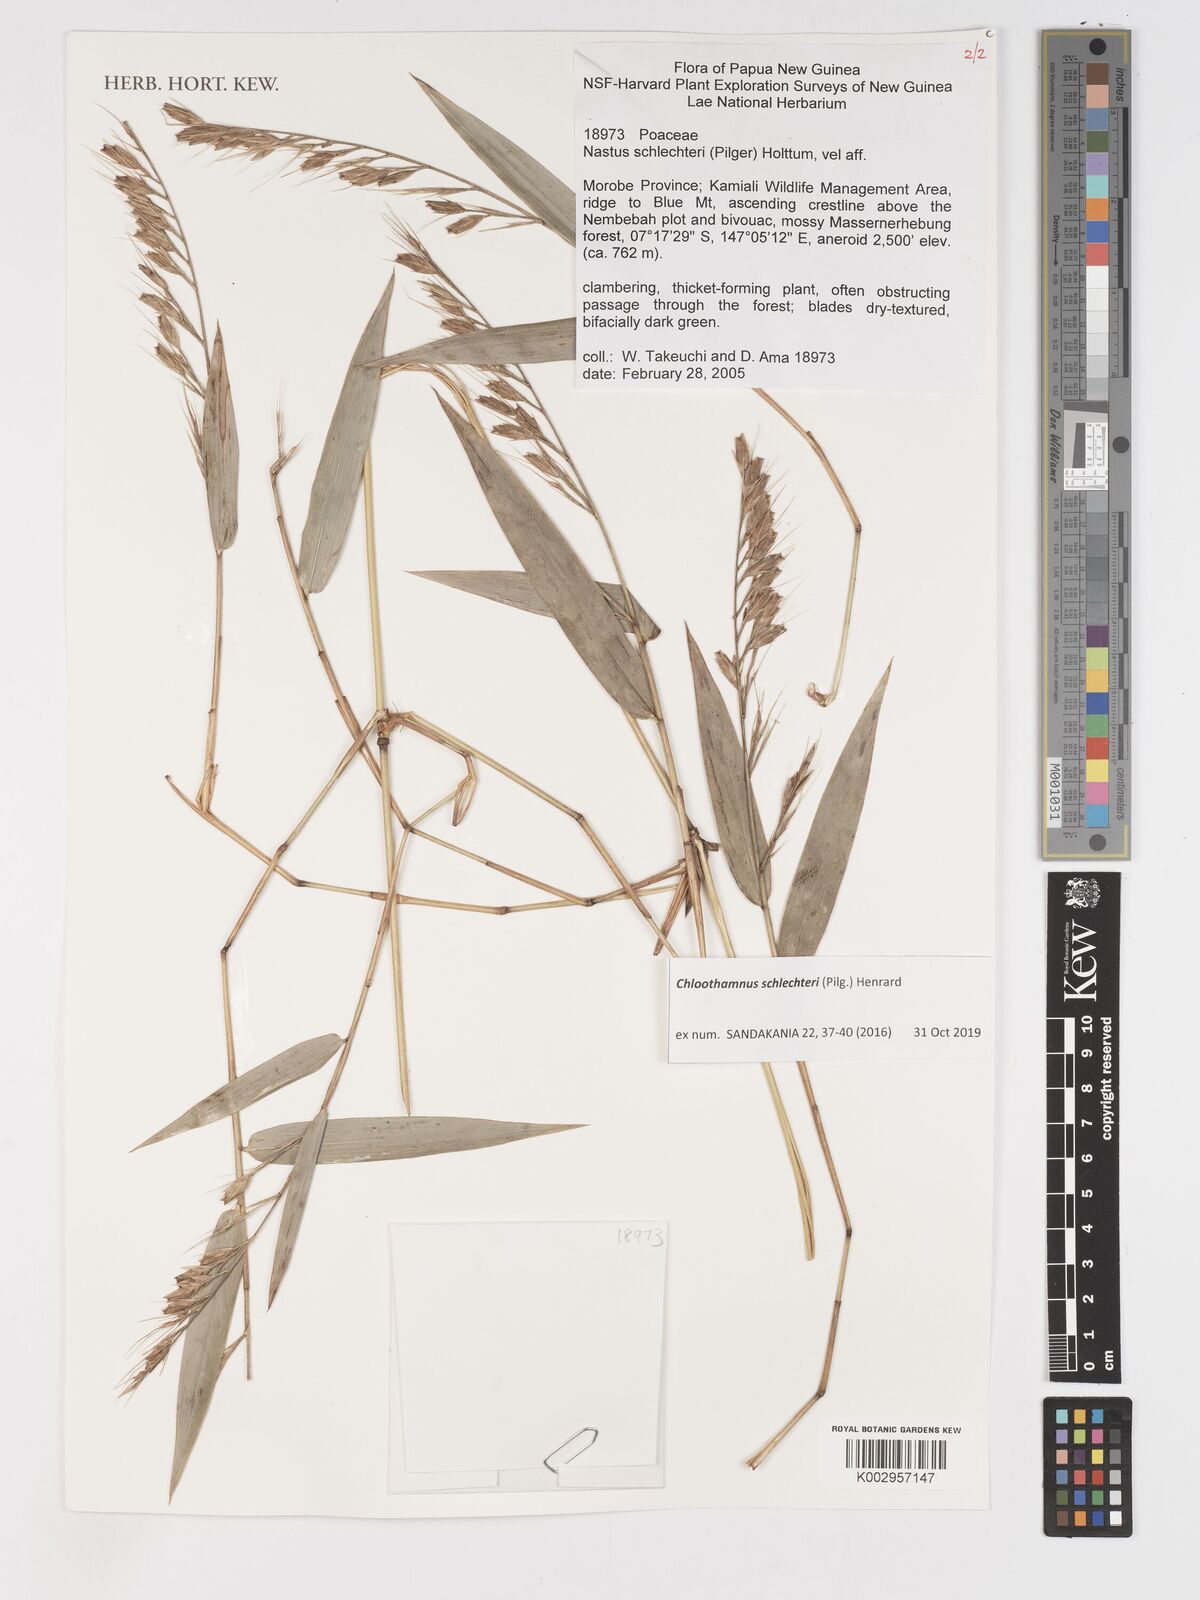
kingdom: Plantae
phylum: Tracheophyta
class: Liliopsida
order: Poales
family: Poaceae
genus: Chloothamnus
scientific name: Chloothamnus schlechteri
